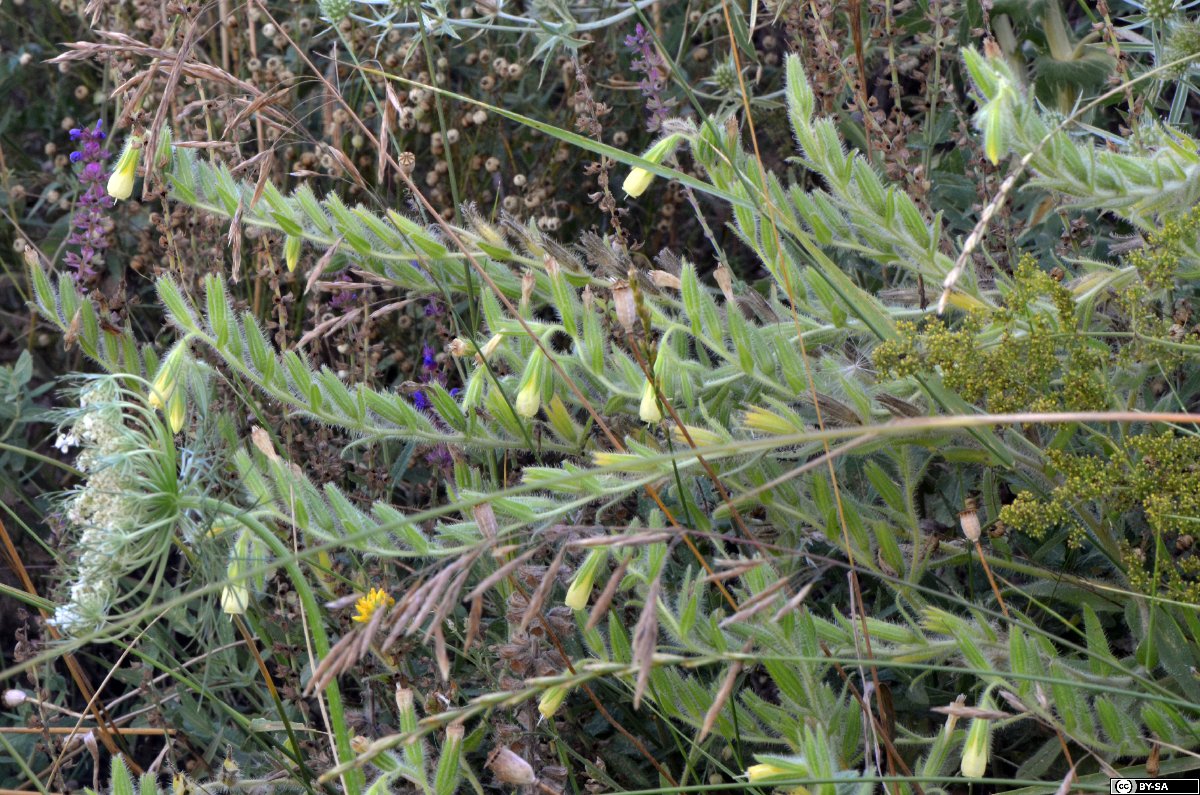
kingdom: Plantae
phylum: Tracheophyta
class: Magnoliopsida
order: Boraginales
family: Boraginaceae
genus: Onosma
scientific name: Onosma arenaria
